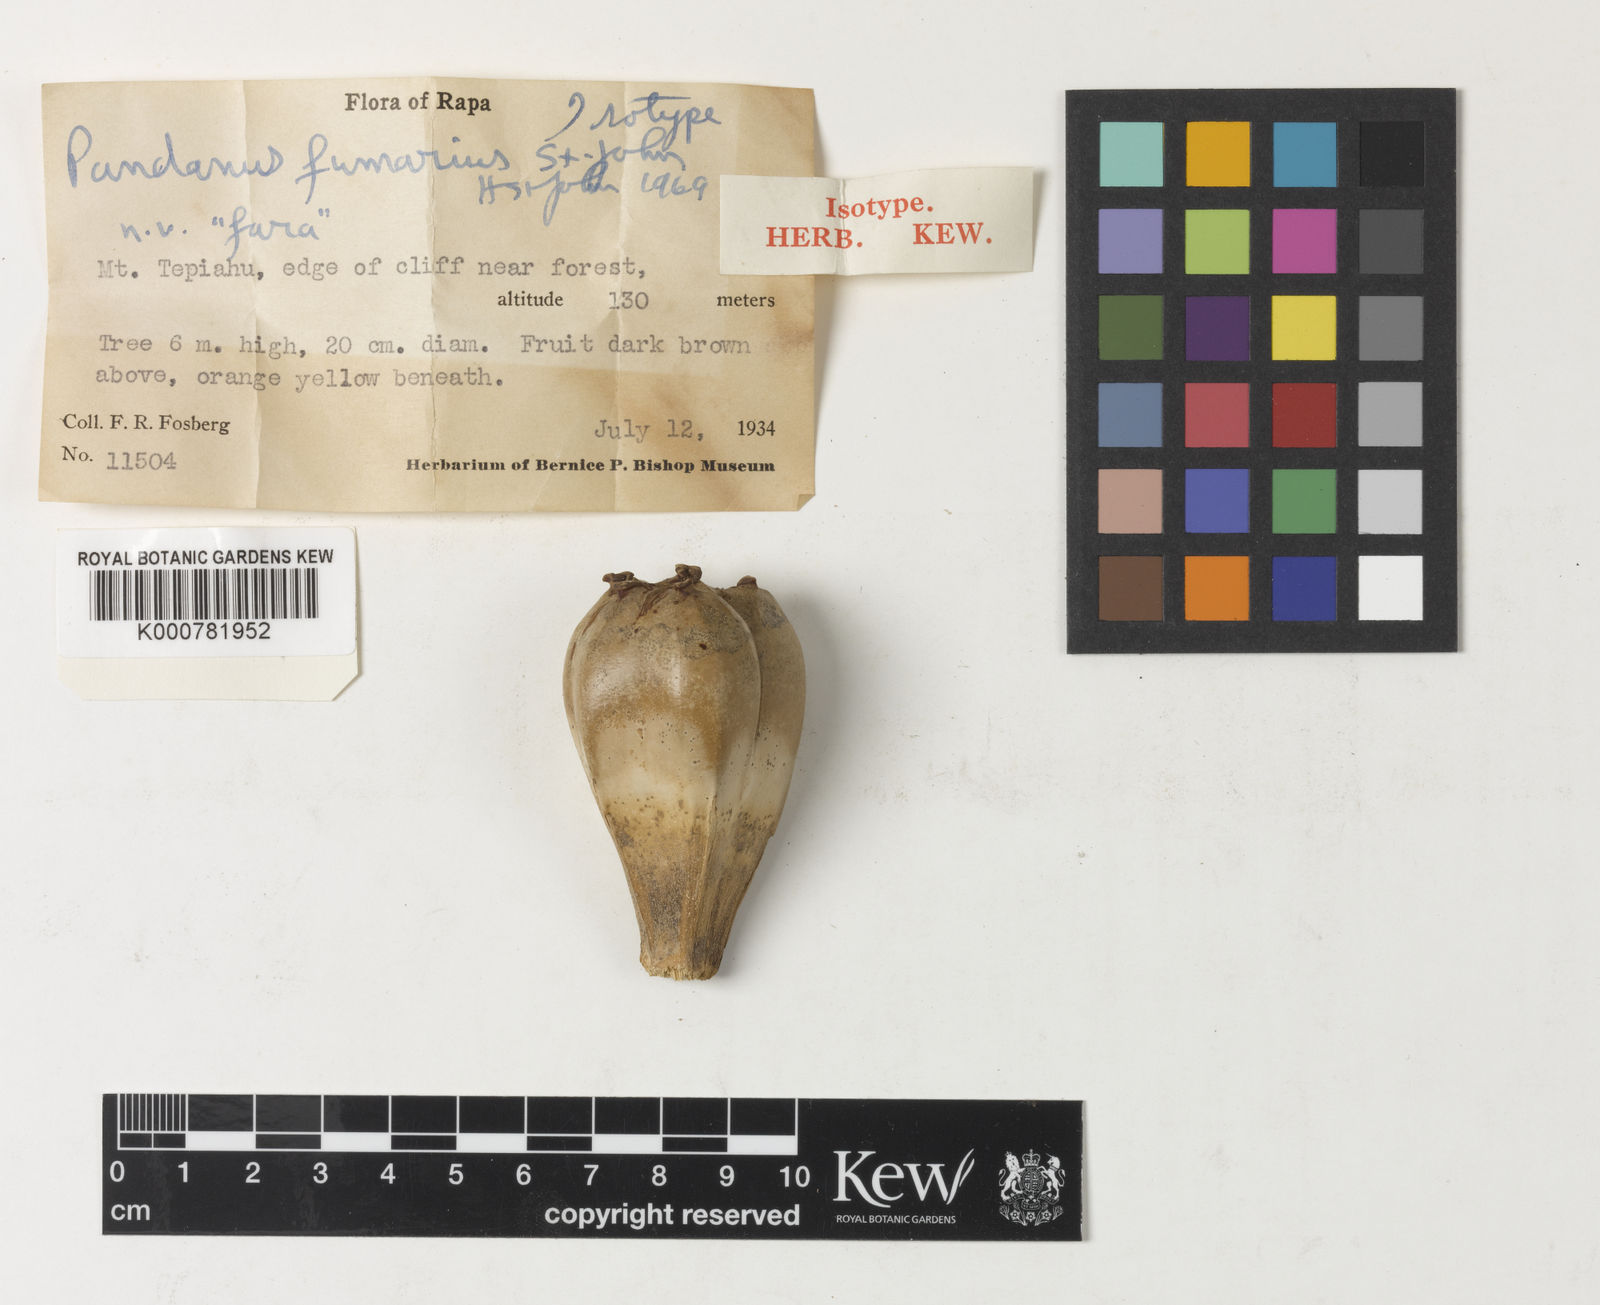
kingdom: Plantae
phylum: Tracheophyta
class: Liliopsida
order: Pandanales
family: Pandanaceae
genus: Pandanus
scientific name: Pandanus
